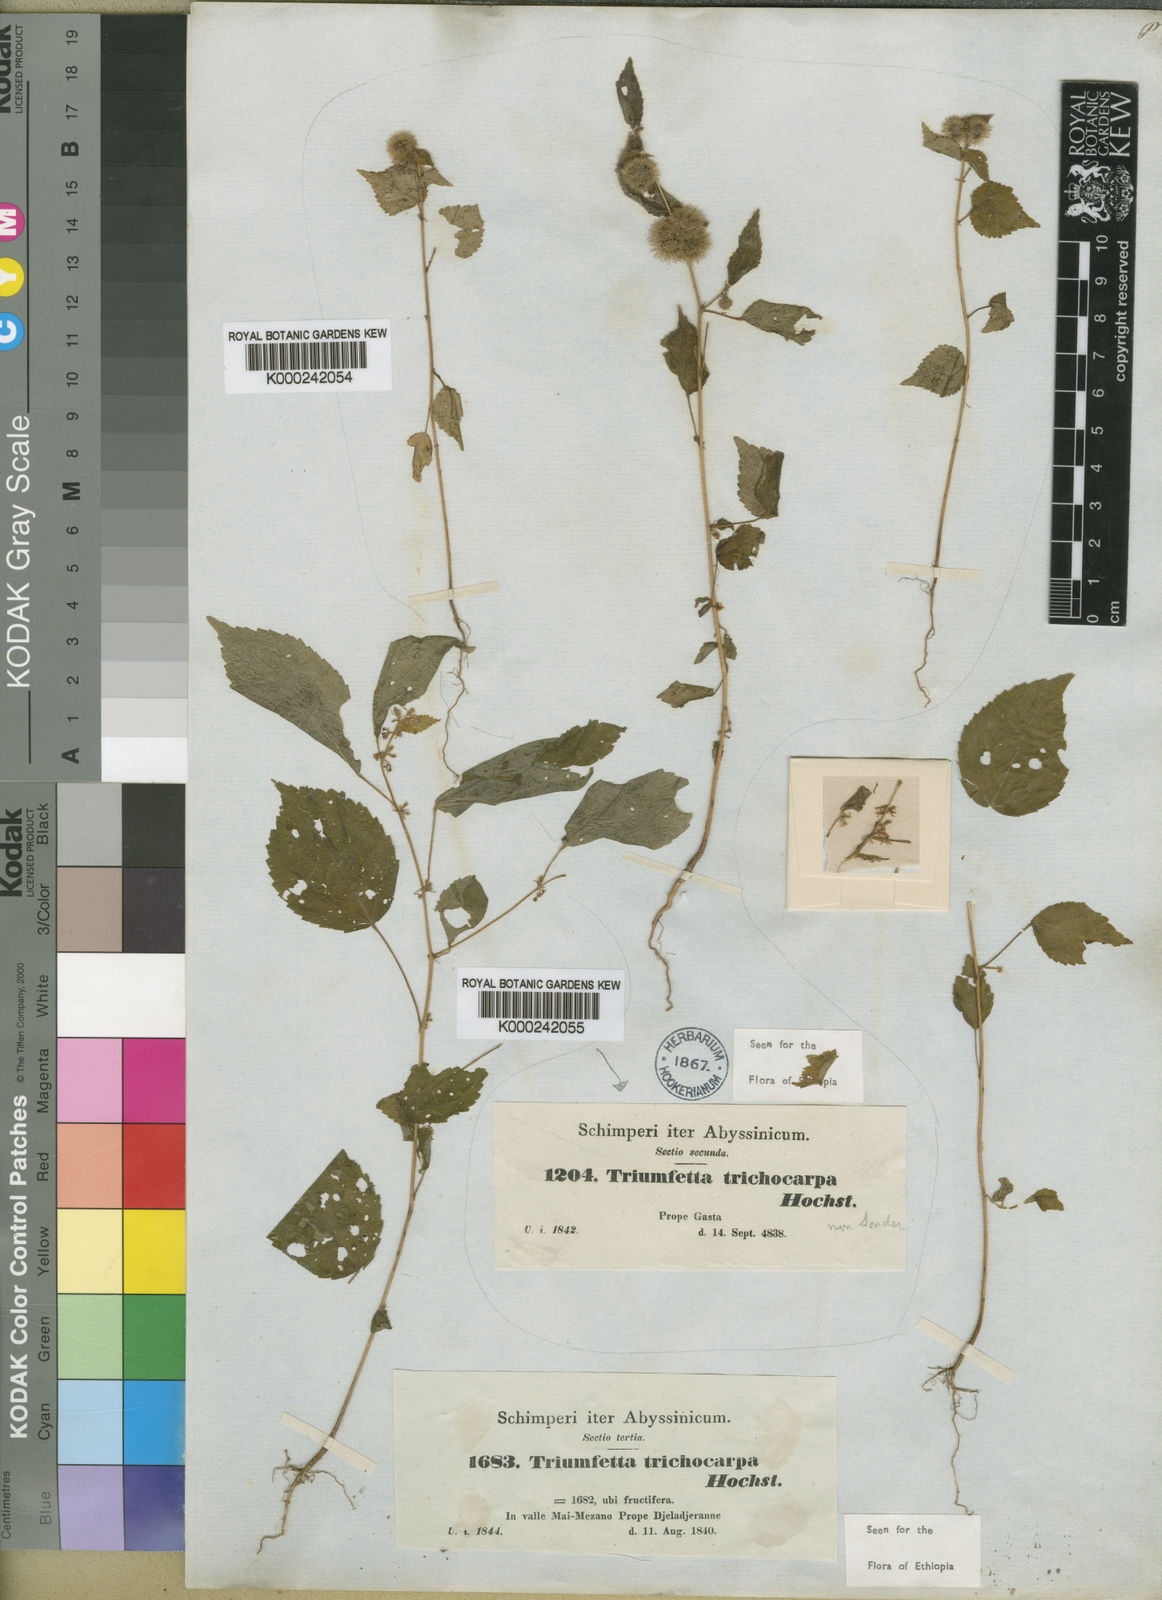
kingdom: Plantae
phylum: Tracheophyta
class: Magnoliopsida
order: Malvales
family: Malvaceae
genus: Triumfetta
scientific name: Triumfetta trichocarpa
